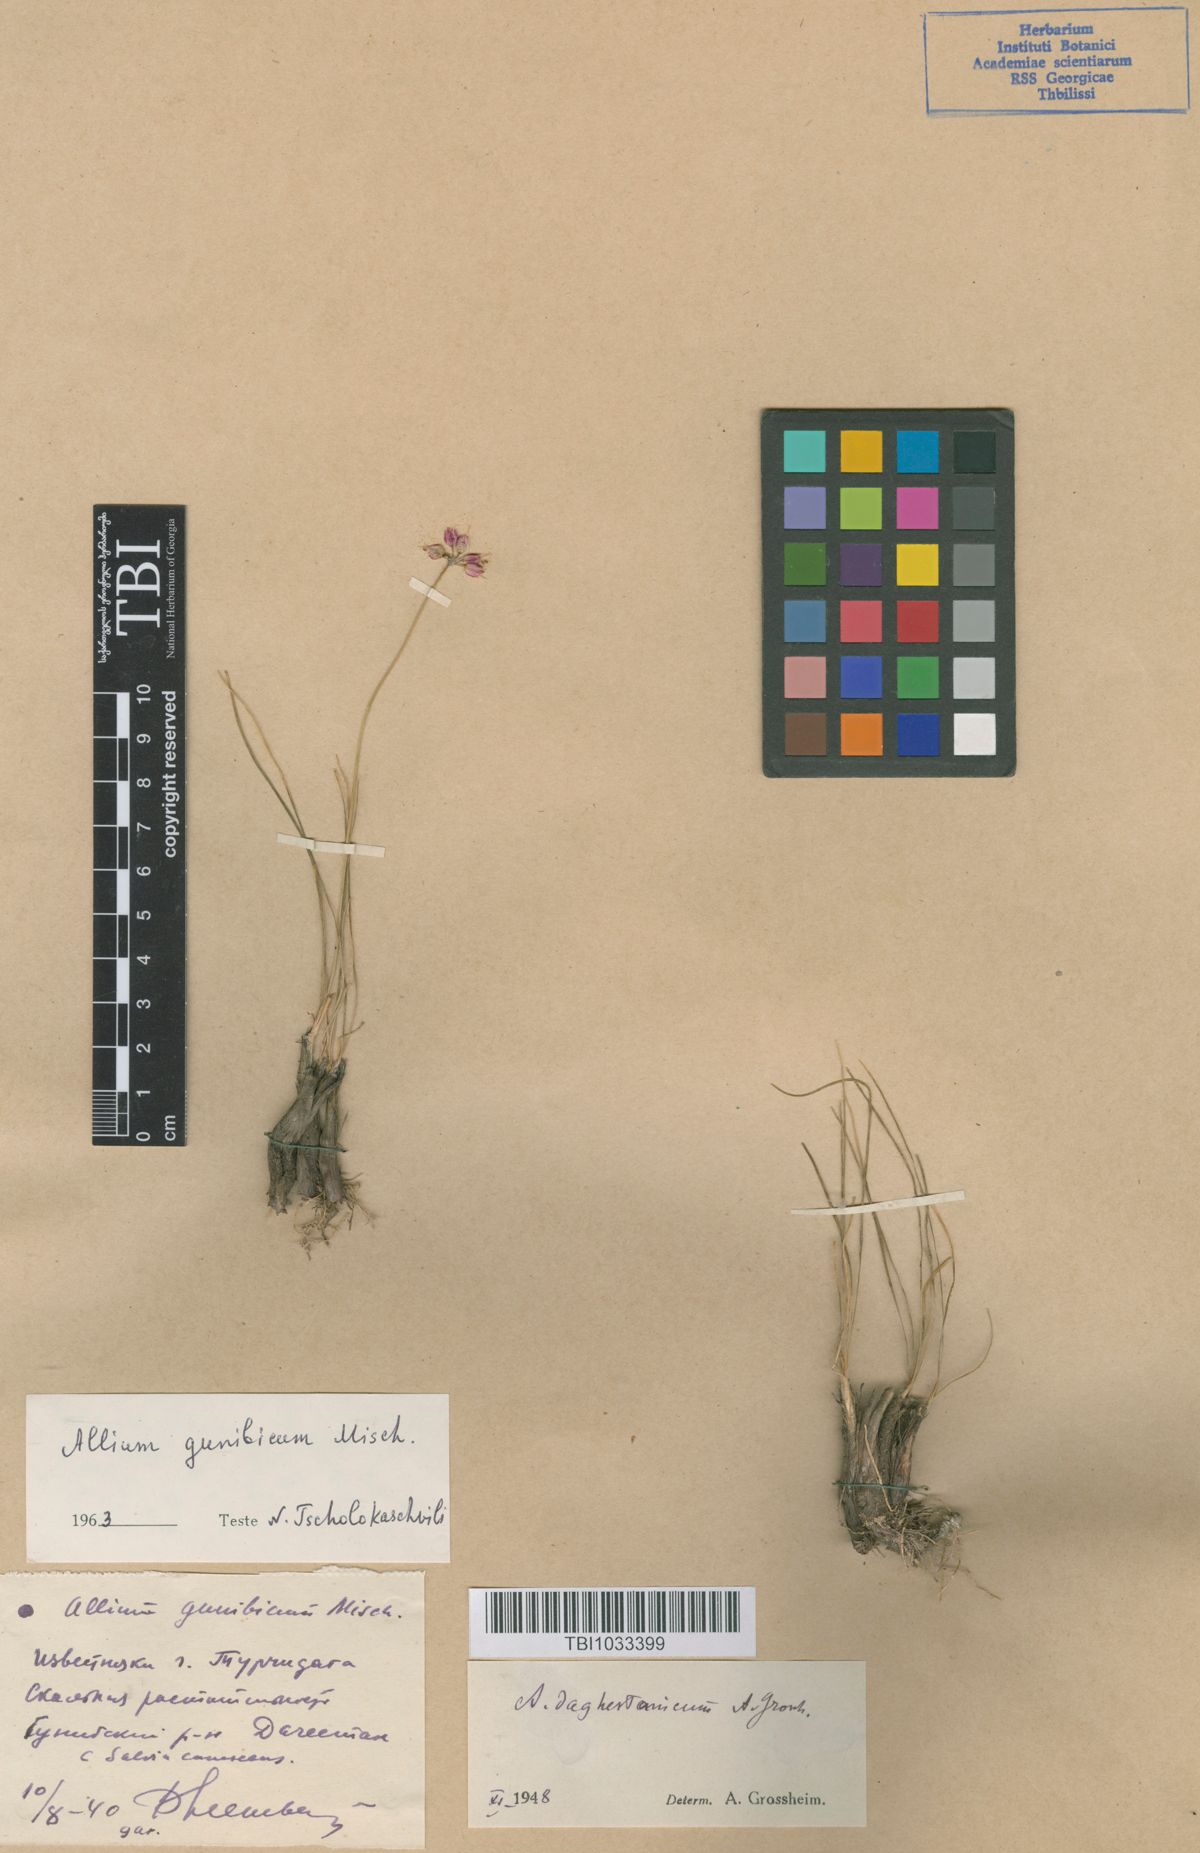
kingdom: Plantae
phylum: Tracheophyta
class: Liliopsida
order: Asparagales
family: Amaryllidaceae
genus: Allium
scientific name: Allium gunibicum
